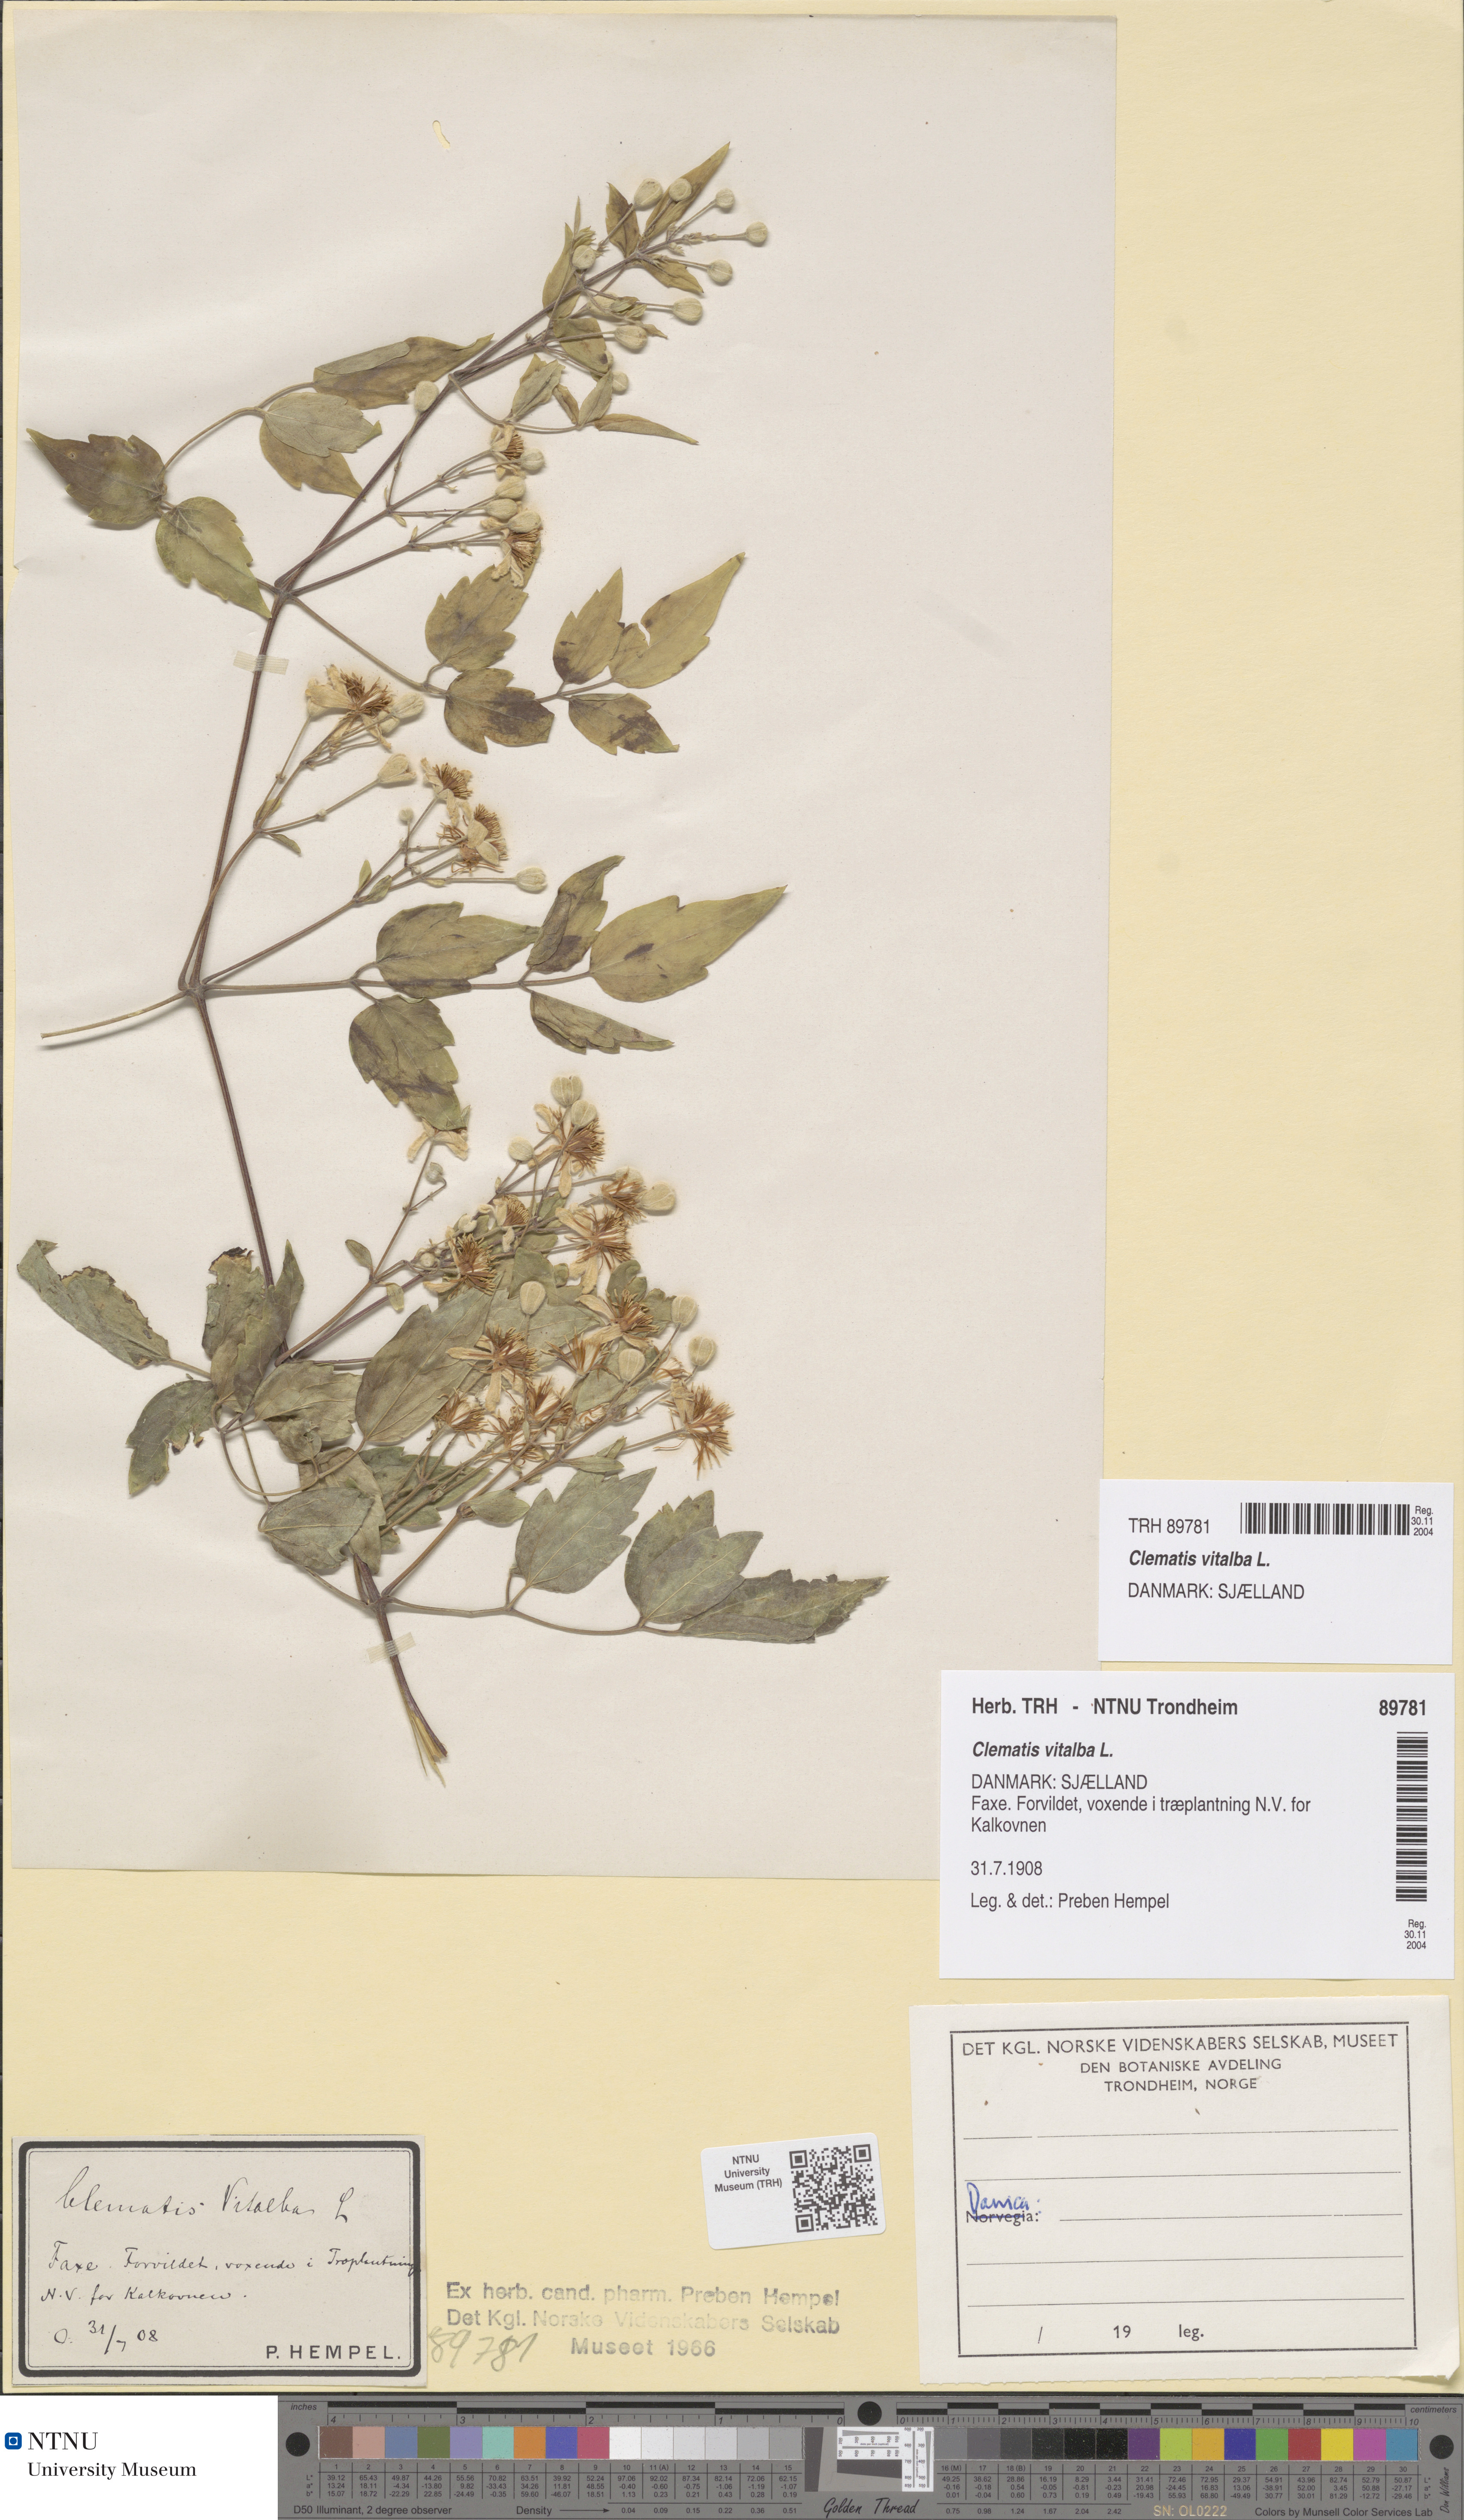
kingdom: Plantae
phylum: Tracheophyta
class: Magnoliopsida
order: Ranunculales
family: Ranunculaceae
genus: Clematis
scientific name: Clematis vitalba
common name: Evergreen clematis
